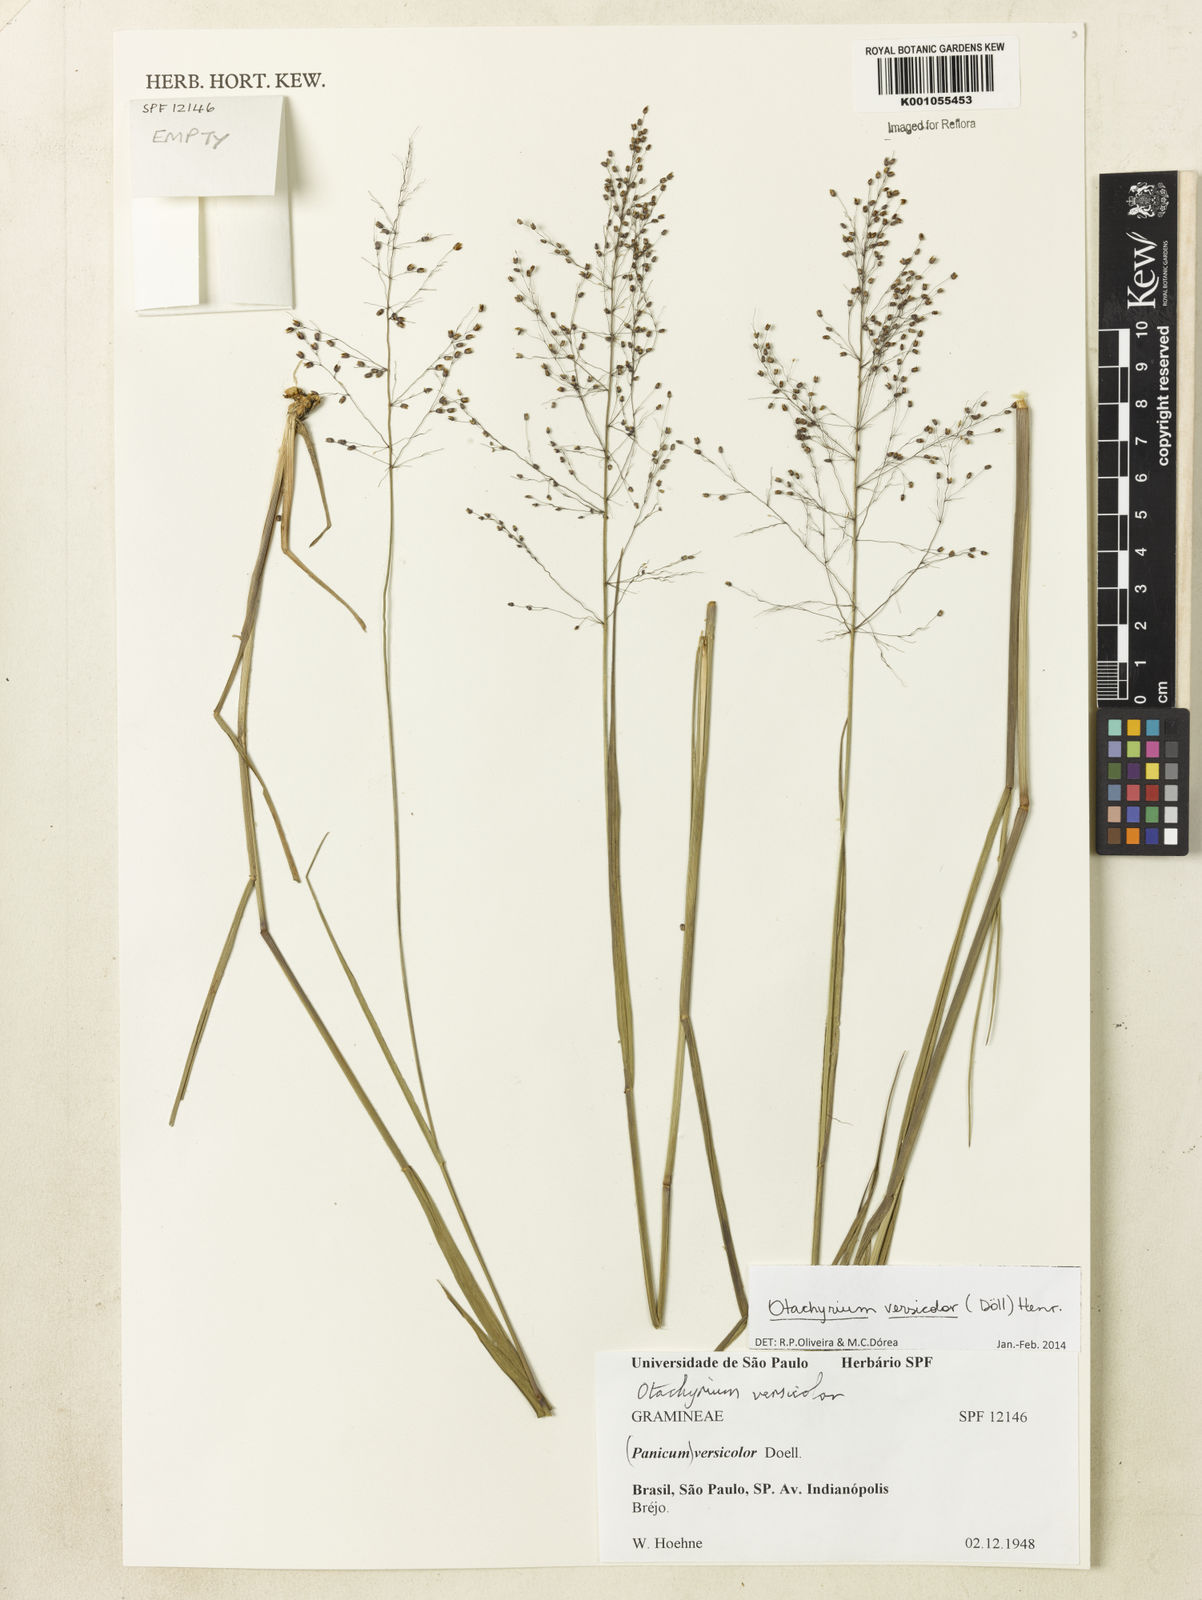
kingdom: Plantae
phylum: Tracheophyta
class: Liliopsida
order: Poales
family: Poaceae
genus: Otachyrium
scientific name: Otachyrium
